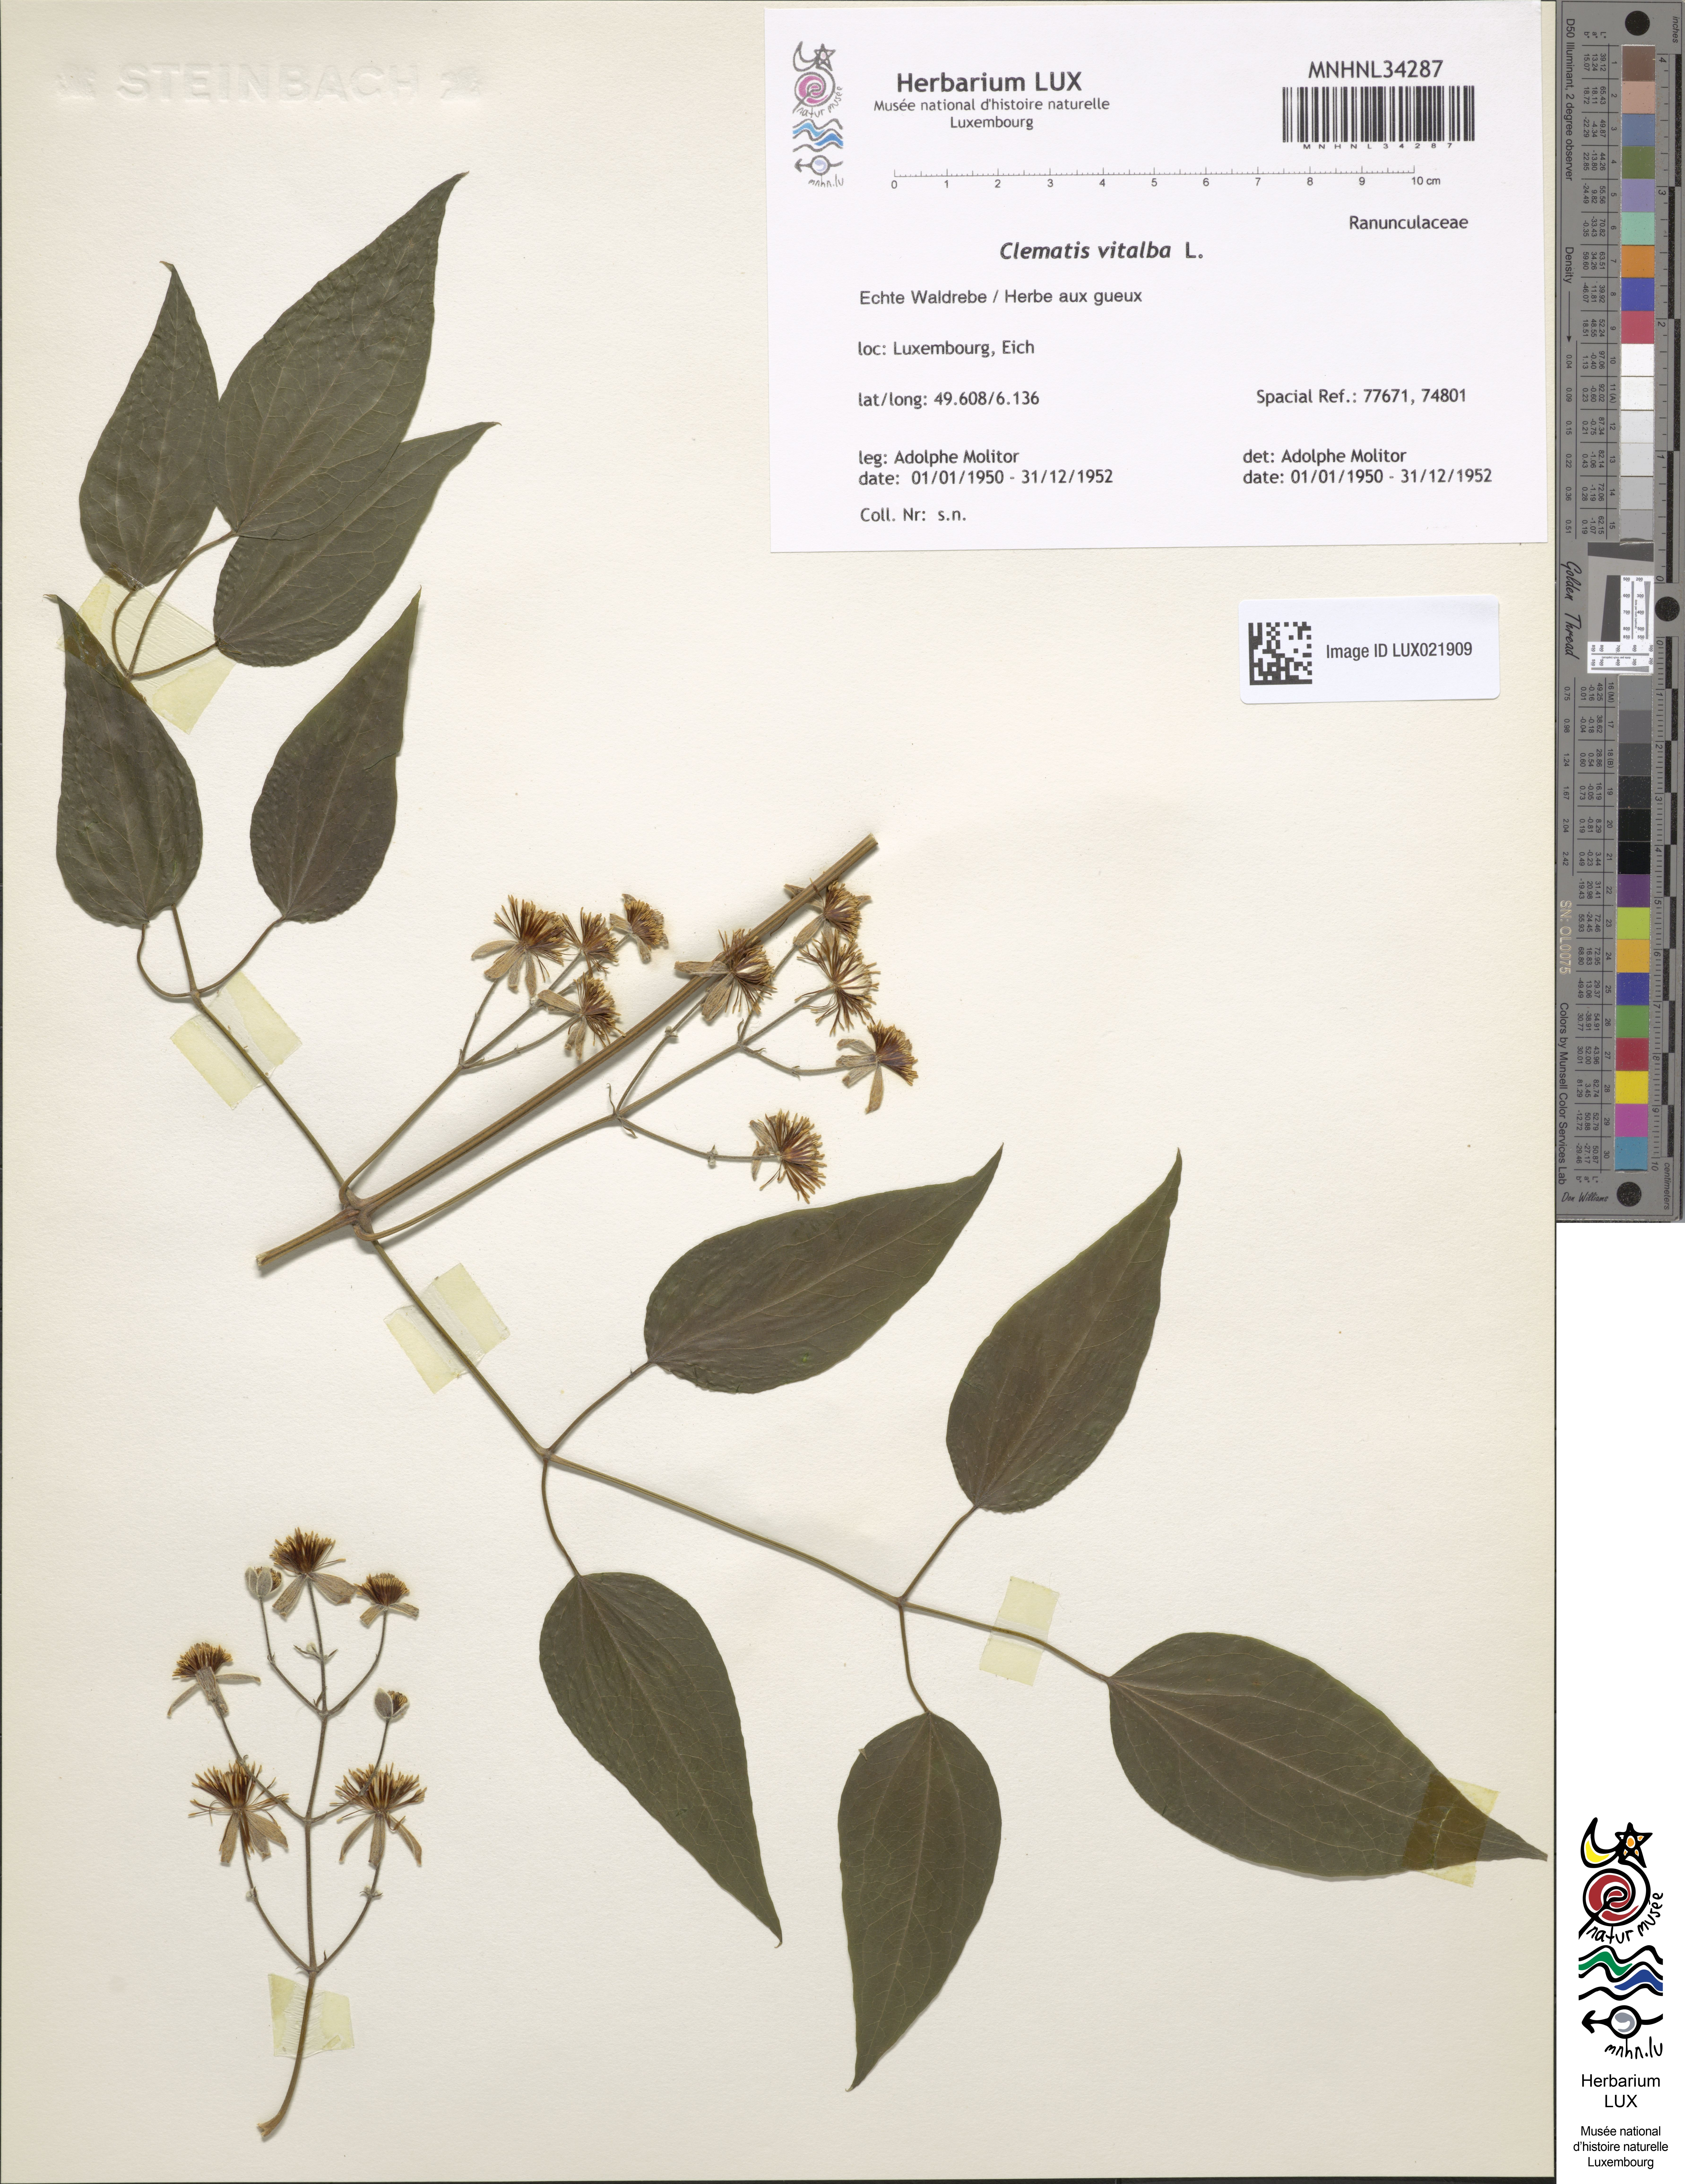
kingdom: Plantae
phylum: Tracheophyta
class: Magnoliopsida
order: Ranunculales
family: Ranunculaceae
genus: Clematis
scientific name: Clematis vitalba
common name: Evergreen clematis
